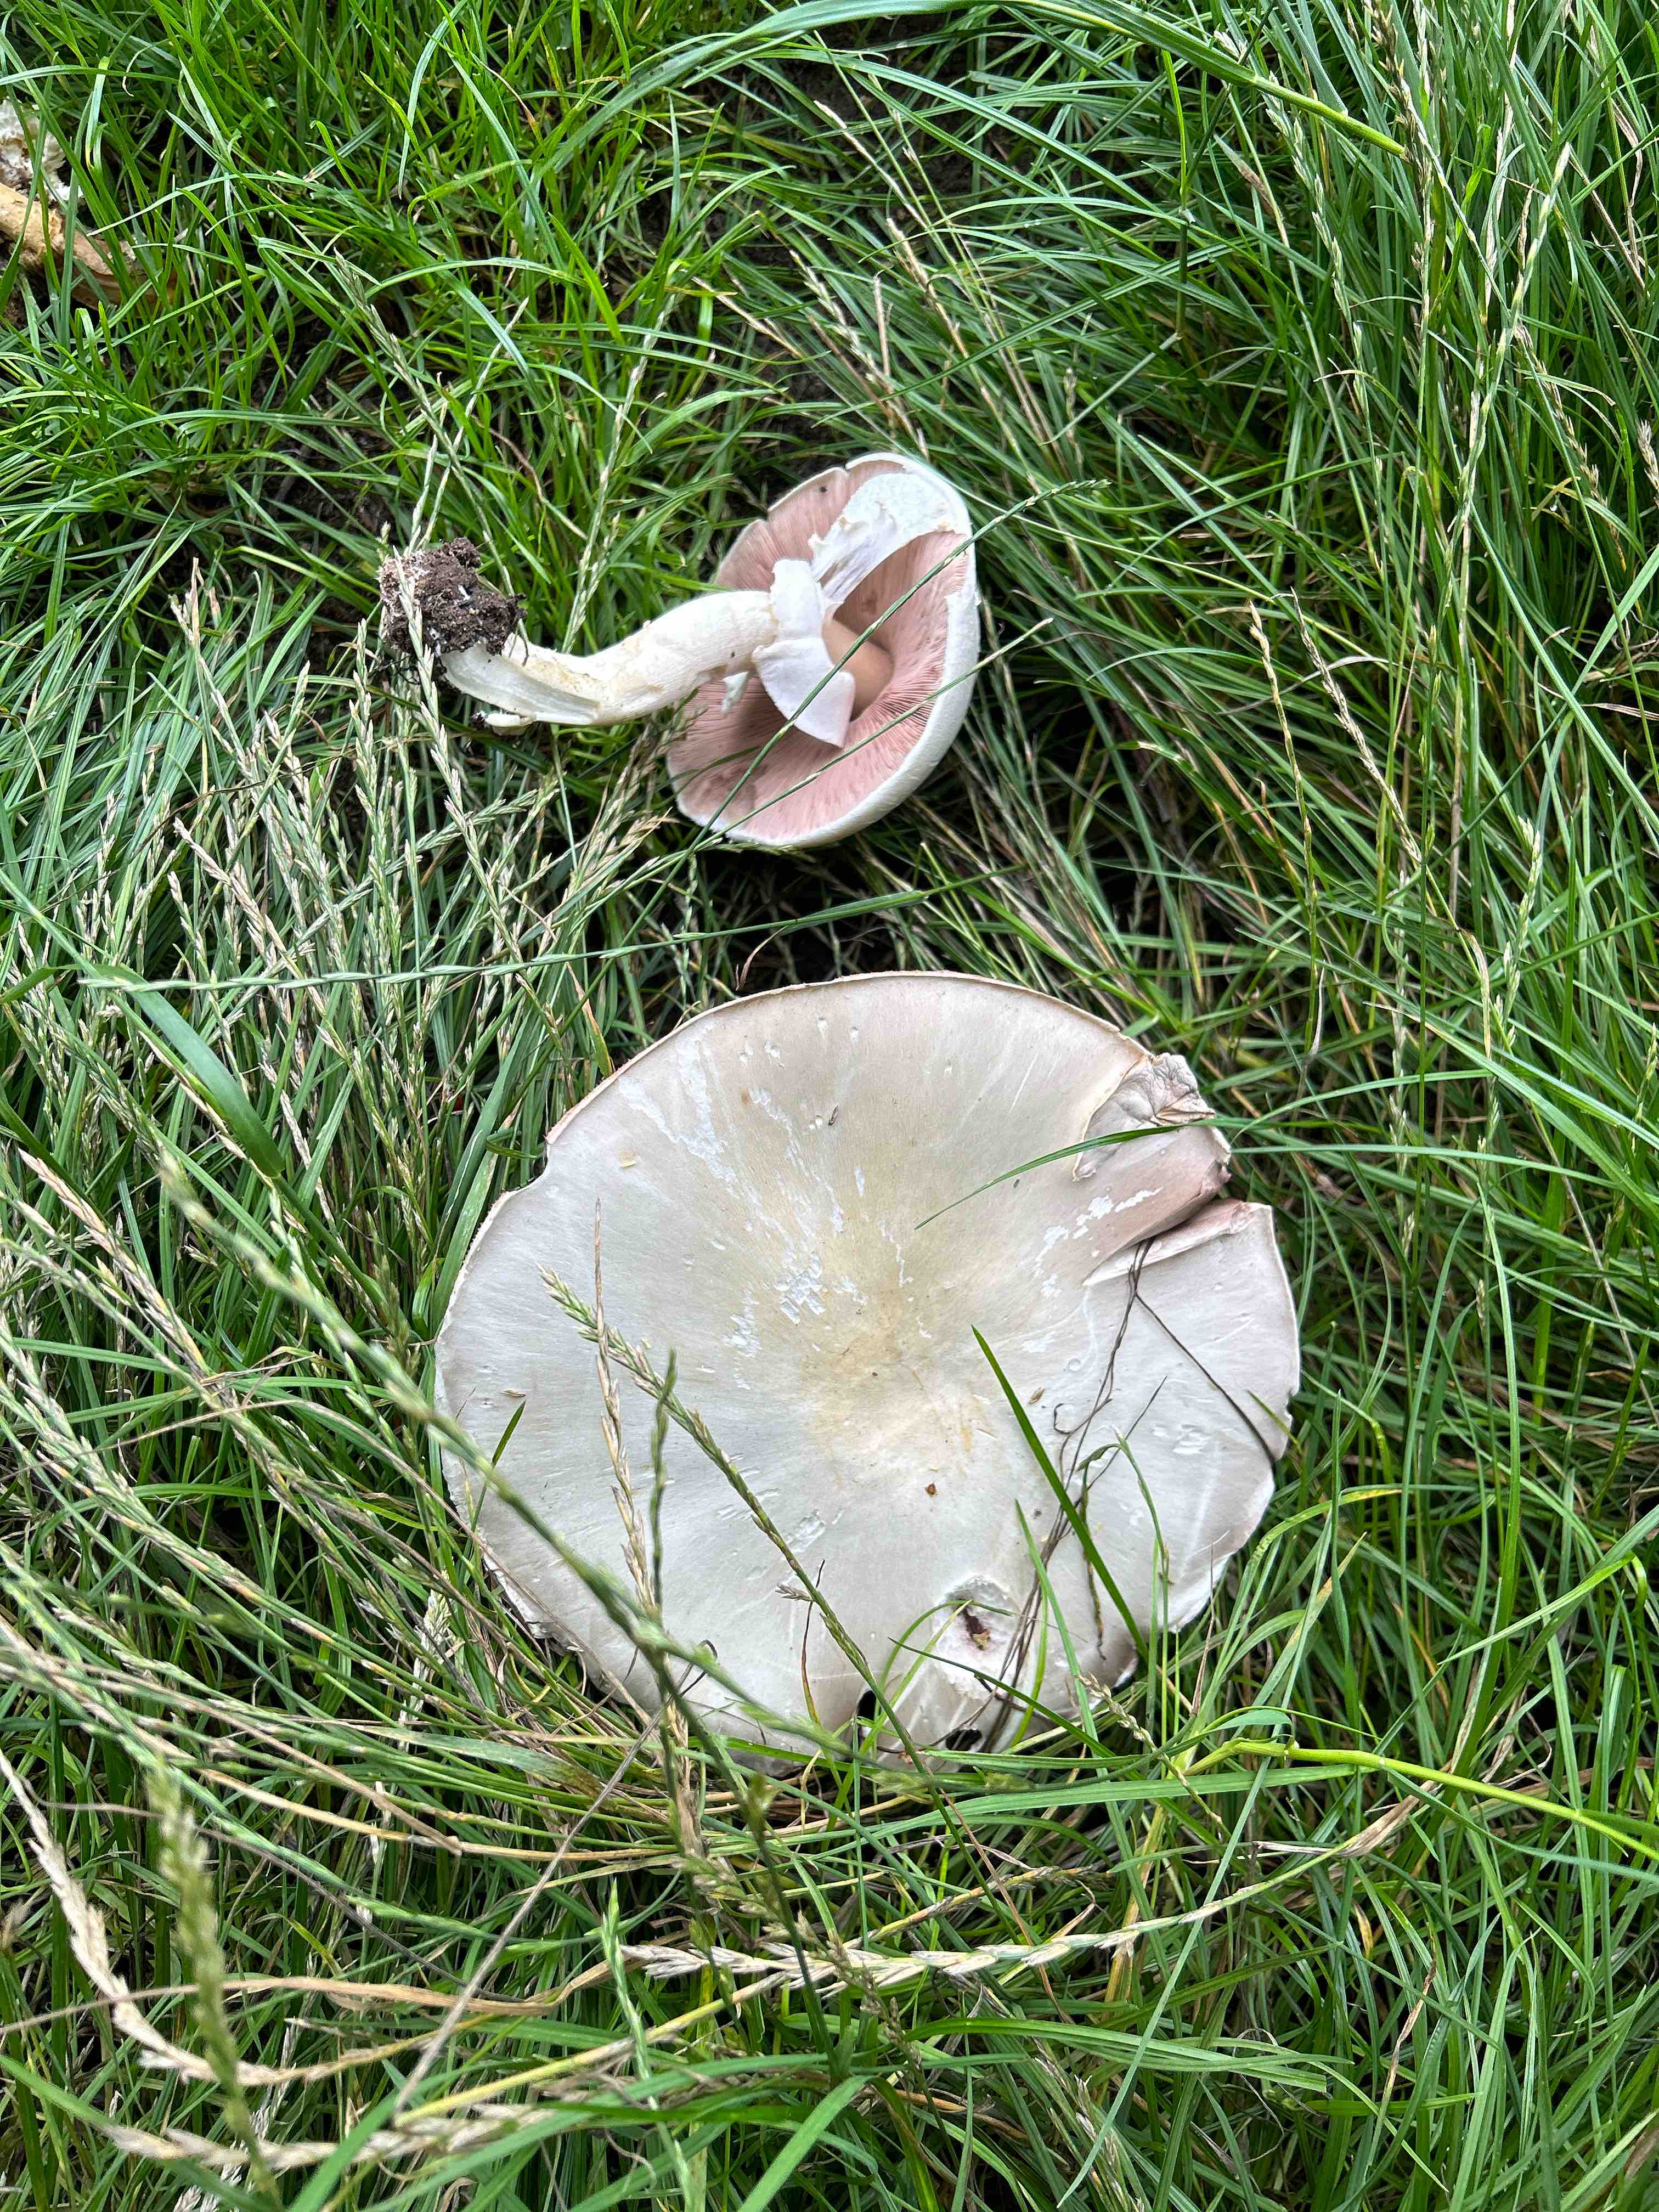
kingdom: Fungi
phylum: Basidiomycota
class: Agaricomycetes
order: Agaricales
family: Agaricaceae
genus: Agaricus
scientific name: Agaricus arvensis
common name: ager-champignon
